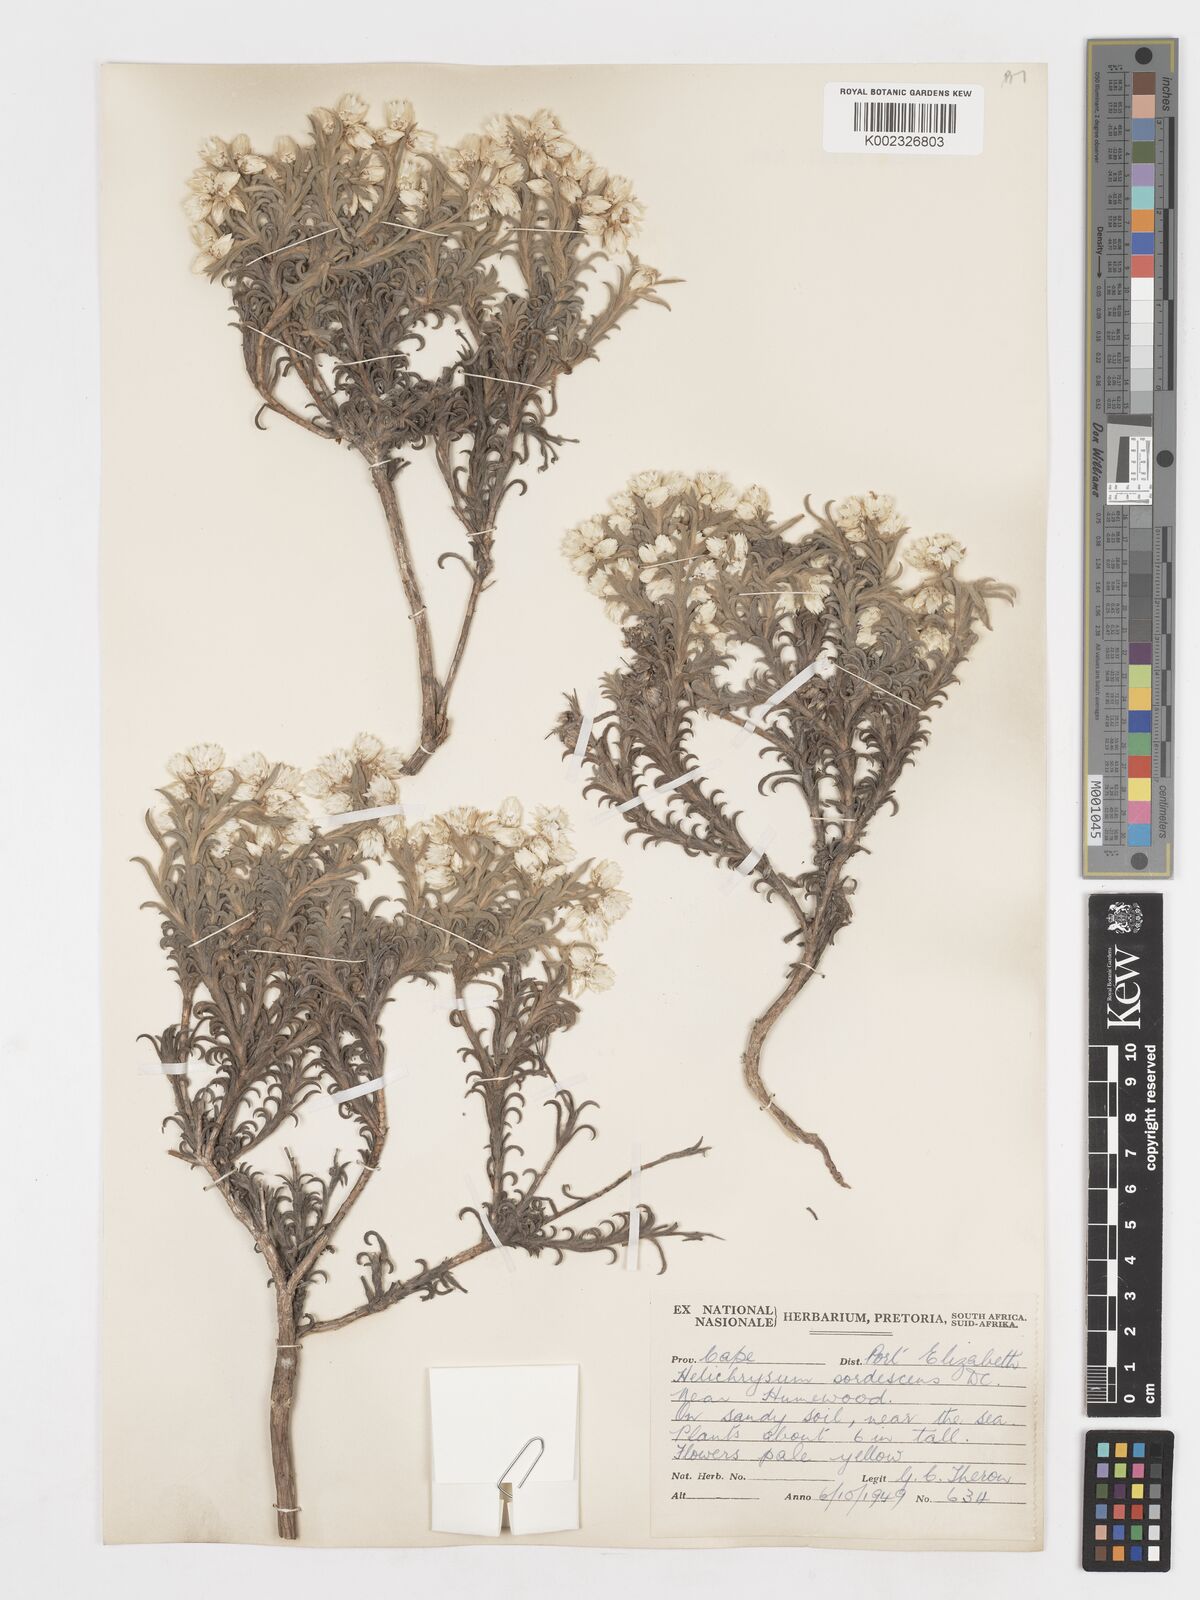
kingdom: Plantae
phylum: Tracheophyta
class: Magnoliopsida
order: Asterales
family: Asteraceae
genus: Achyranthemum
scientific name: Achyranthemum sordescens
